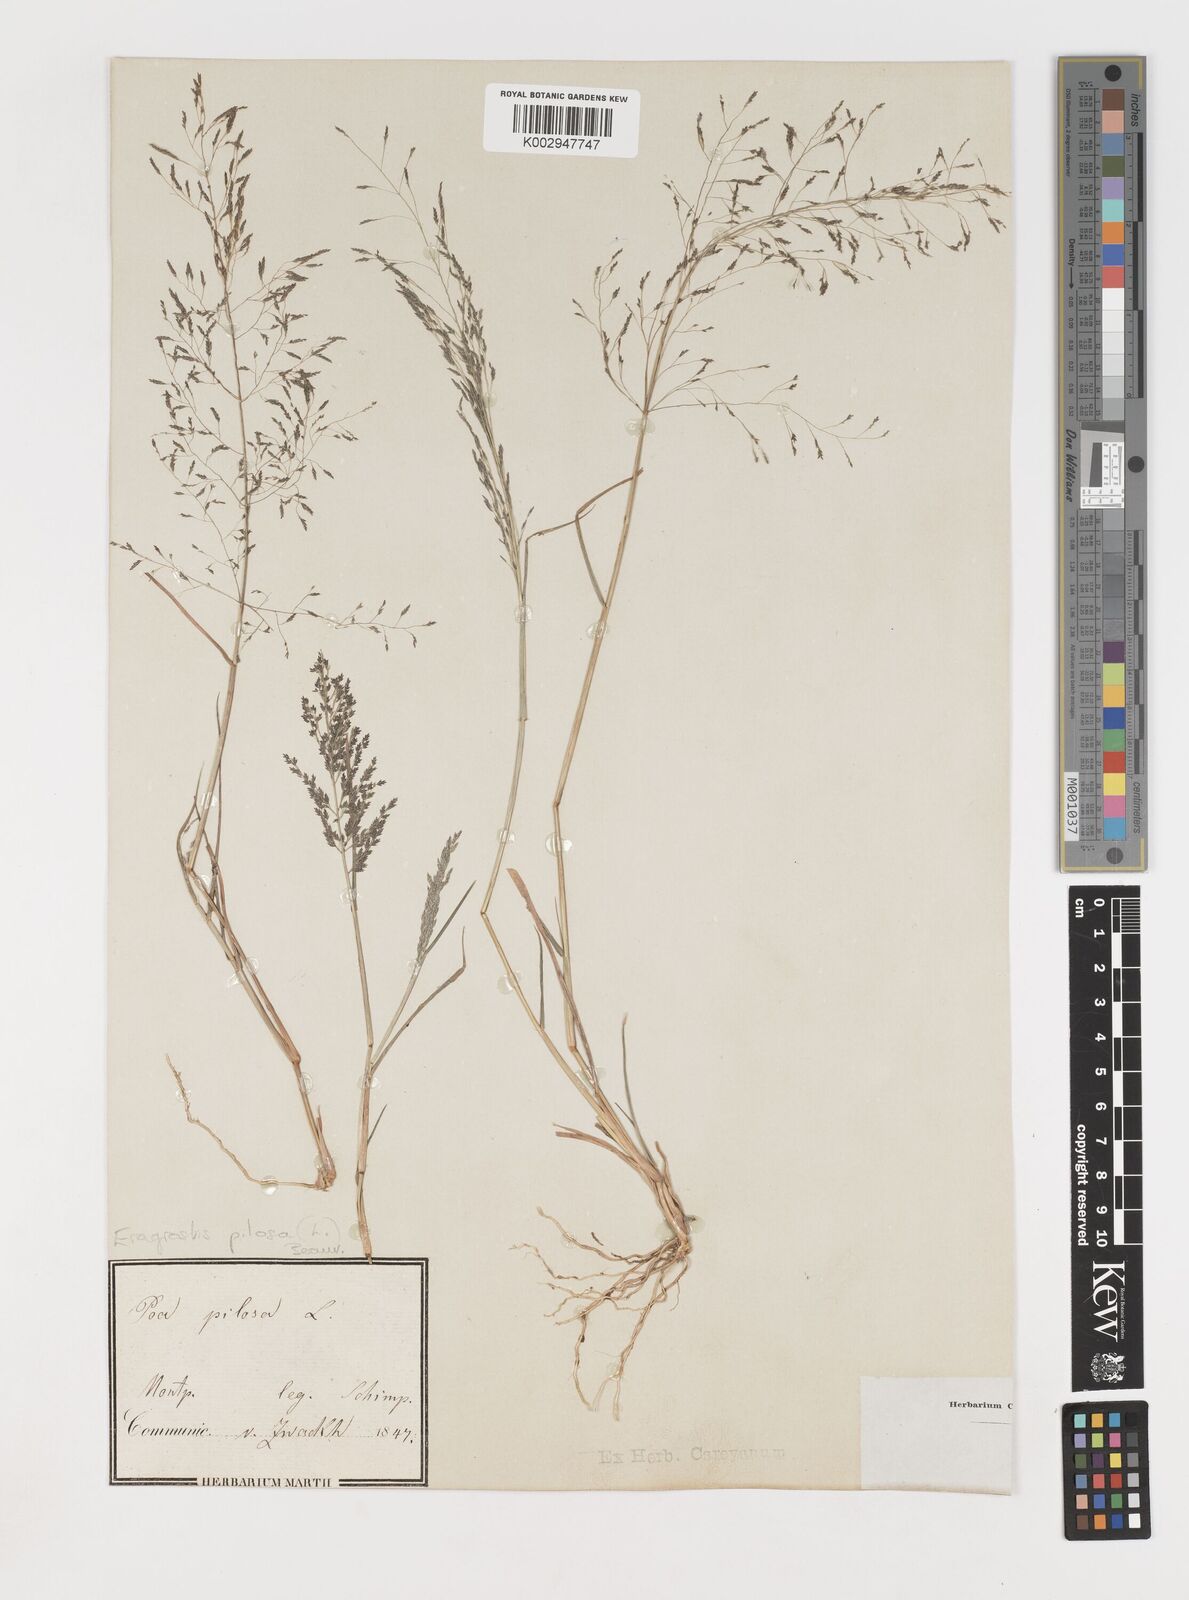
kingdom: Plantae
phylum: Tracheophyta
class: Liliopsida
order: Poales
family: Poaceae
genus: Eragrostis
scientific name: Eragrostis pilosa
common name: Indian lovegrass
